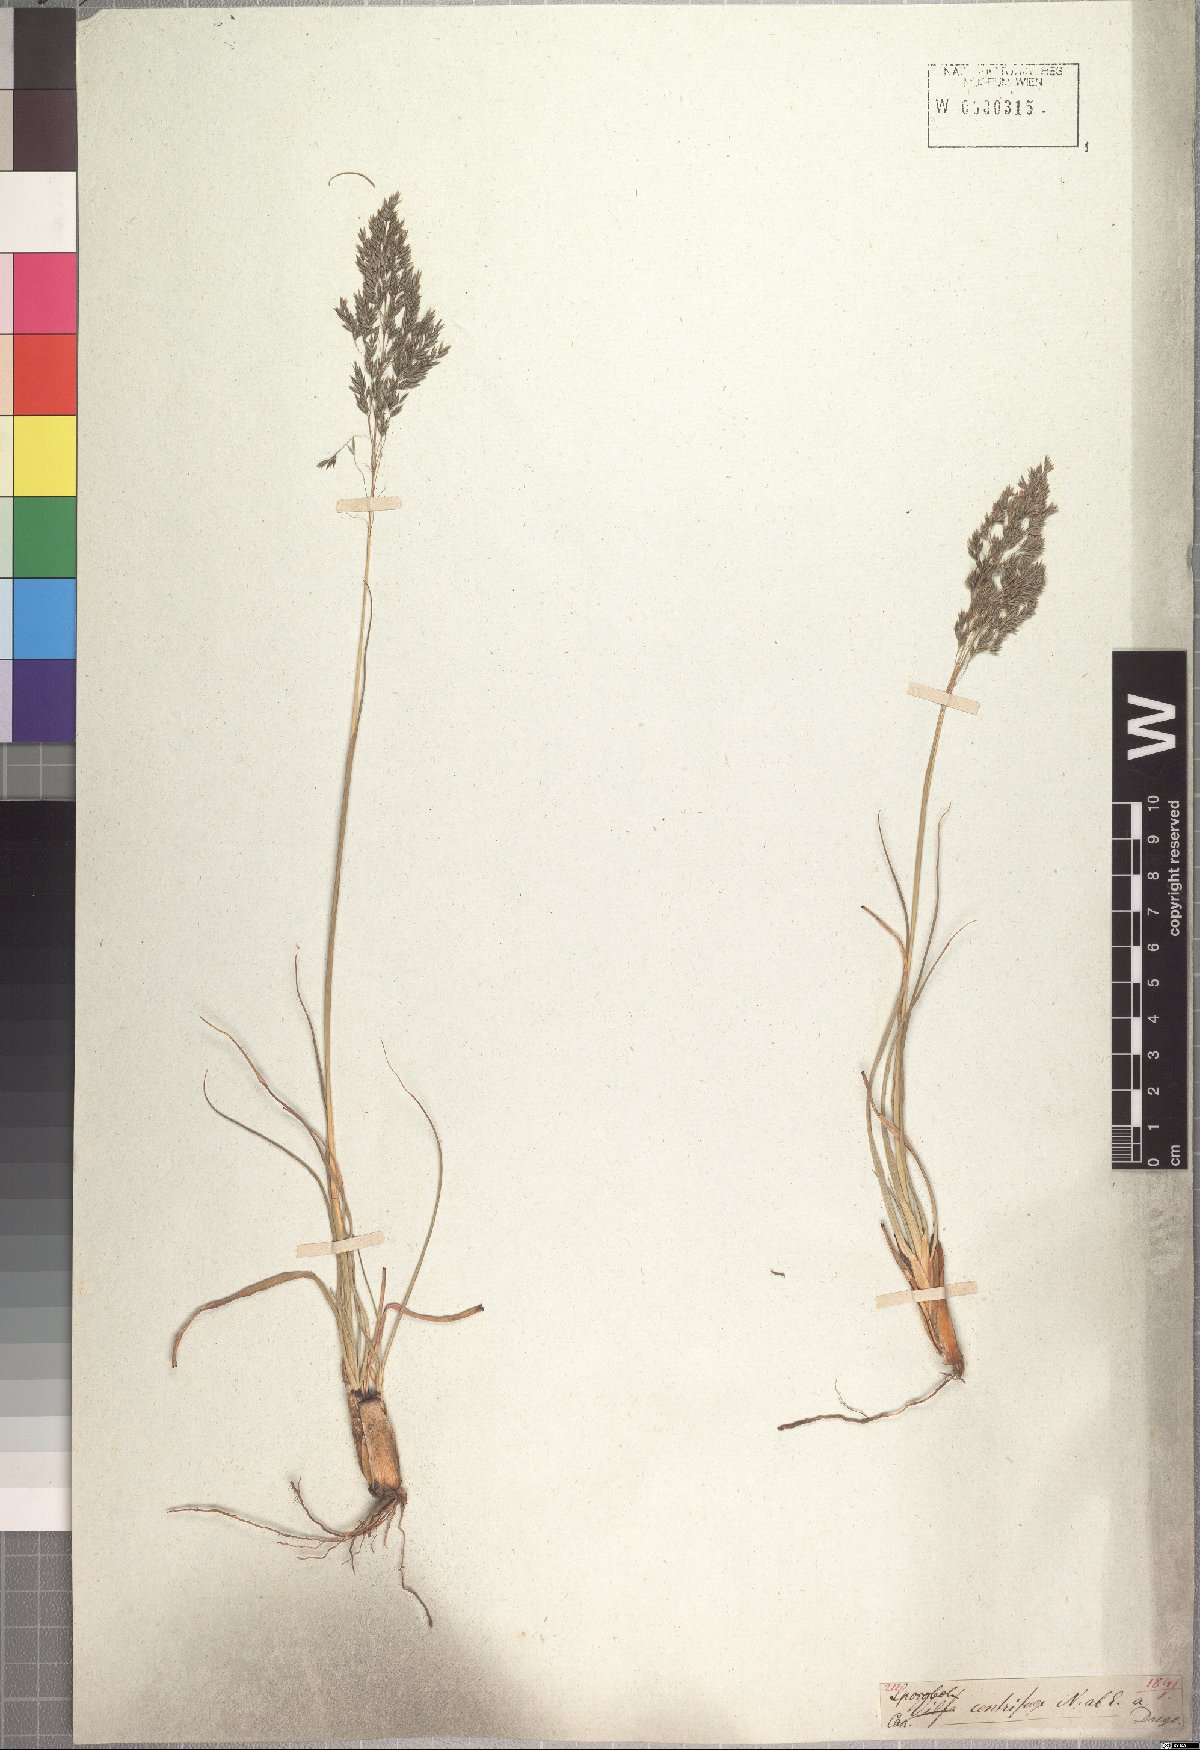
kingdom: Plantae
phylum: Tracheophyta
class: Liliopsida
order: Poales
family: Poaceae
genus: Sporobolus
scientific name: Sporobolus centrifugus
